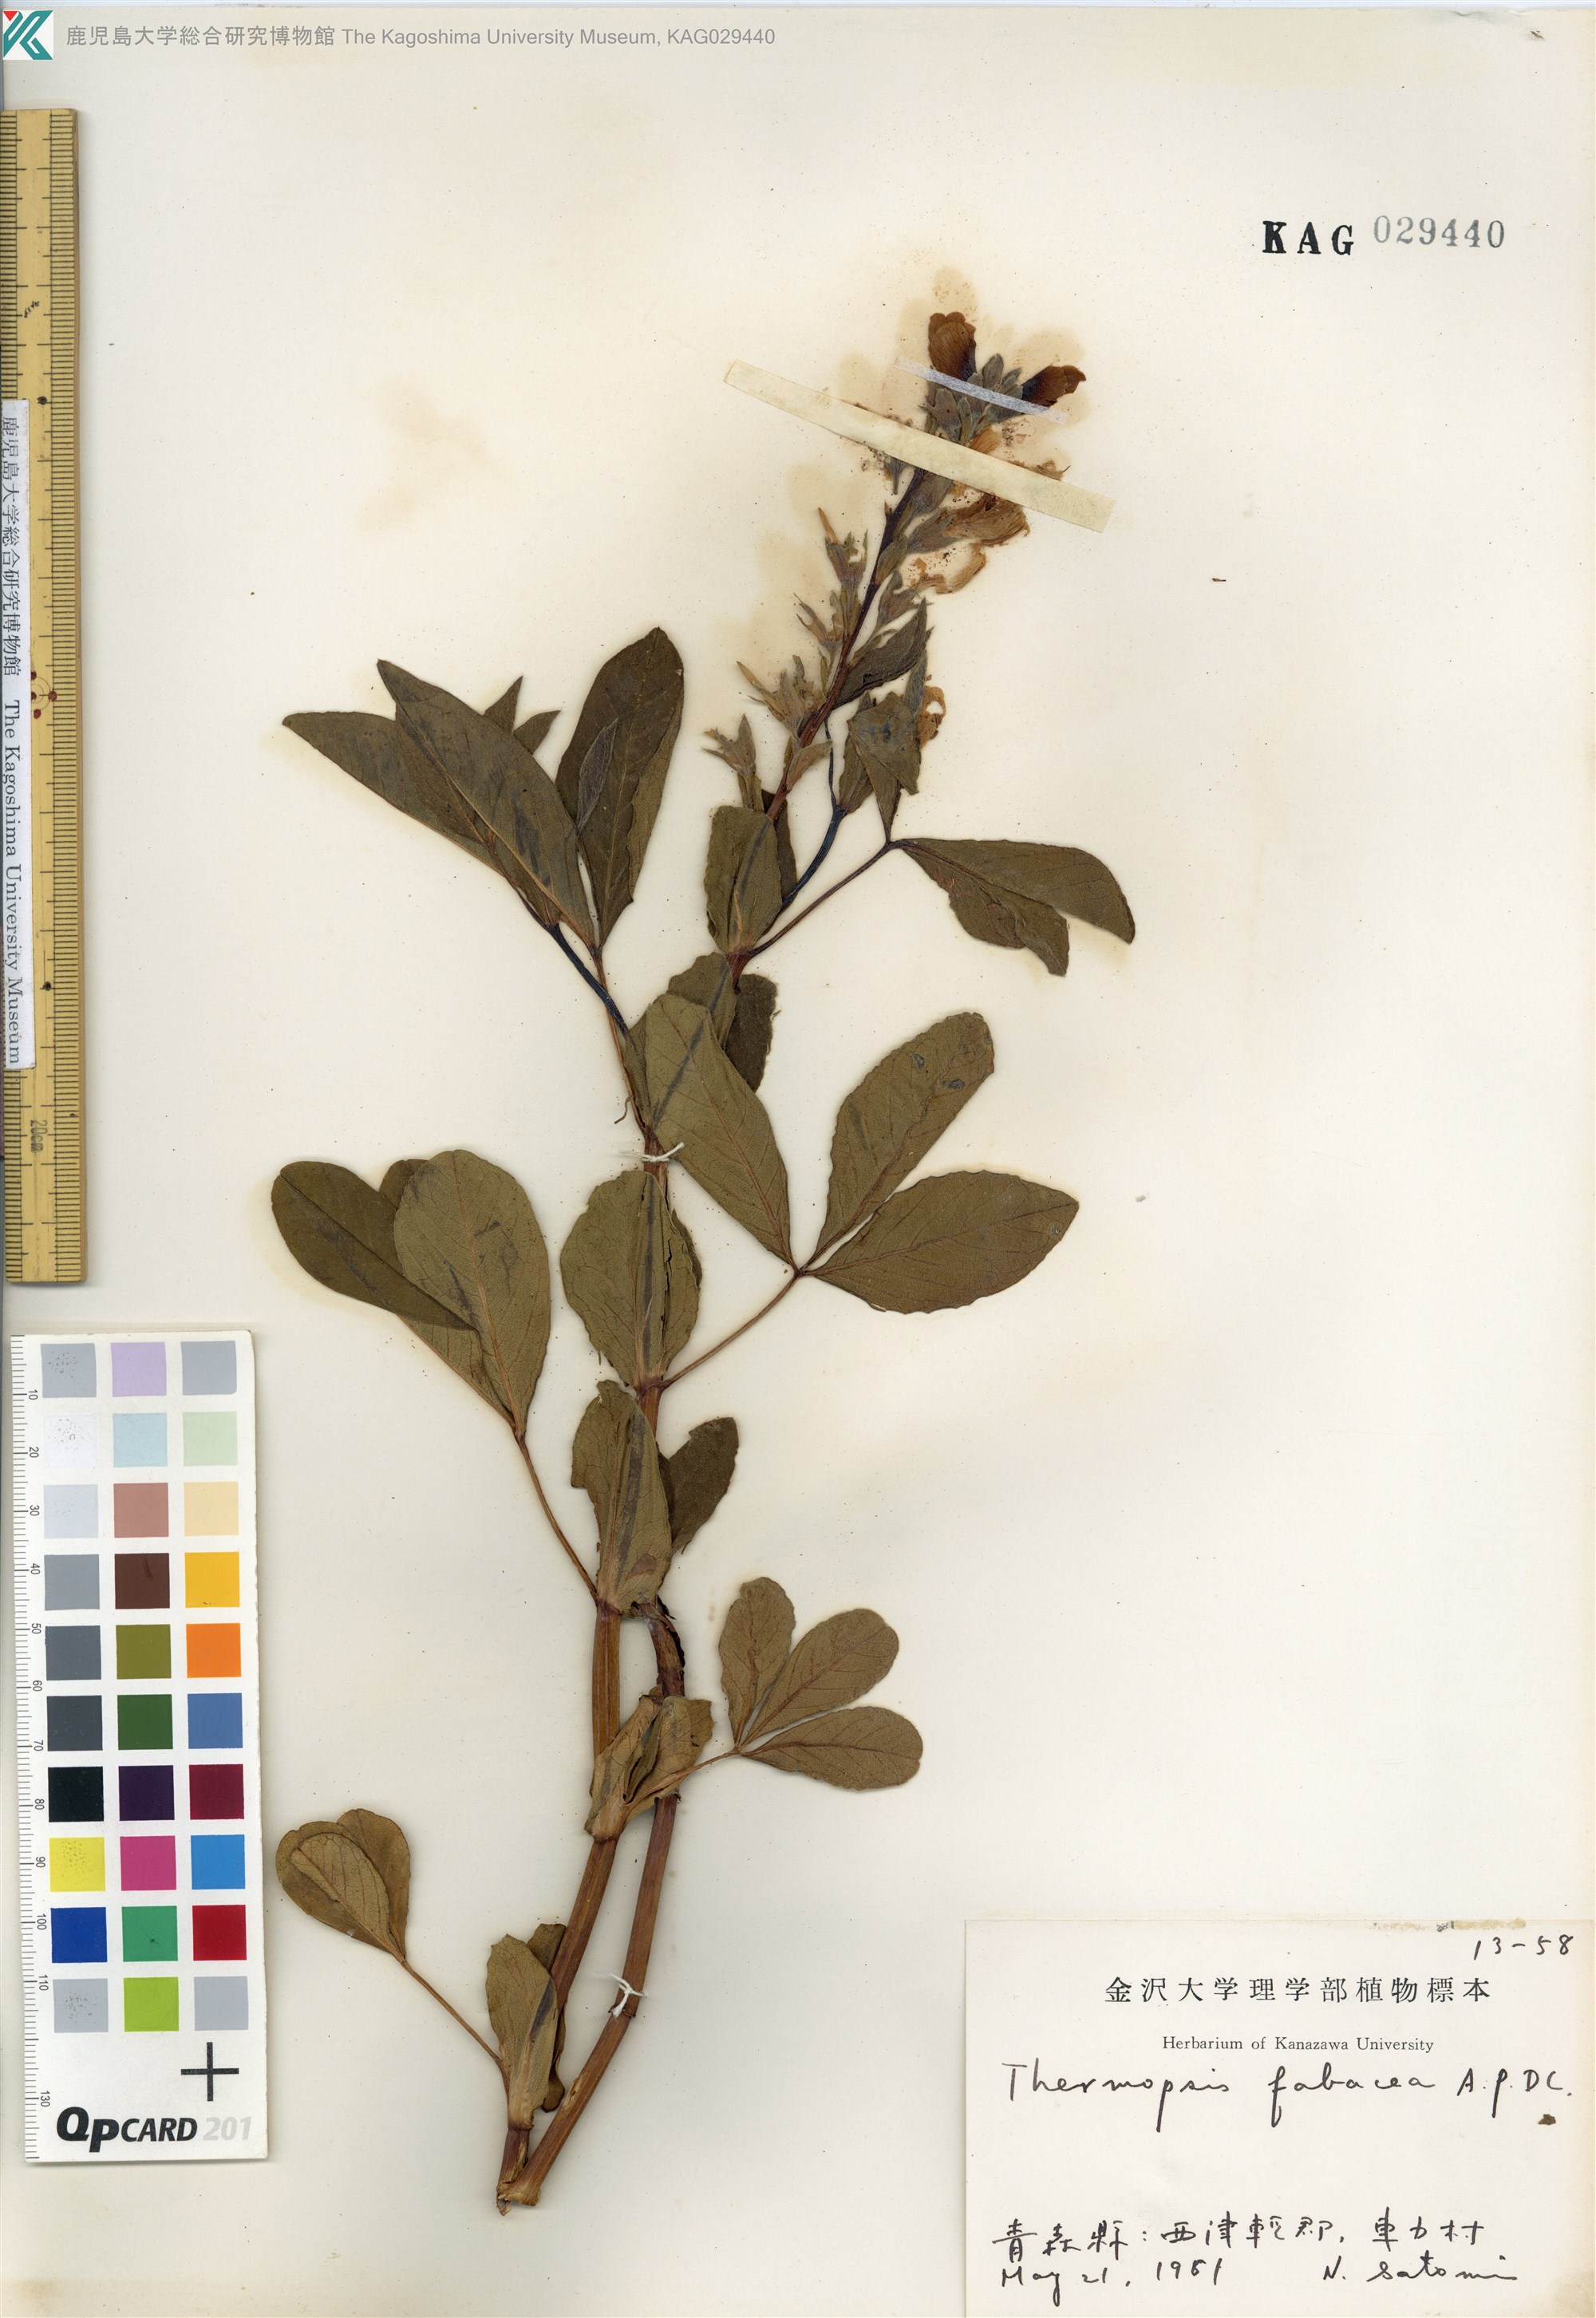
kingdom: Plantae
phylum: Tracheophyta
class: Magnoliopsida
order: Fabales
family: Fabaceae
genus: Thermopsis
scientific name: Thermopsis lanceolata
